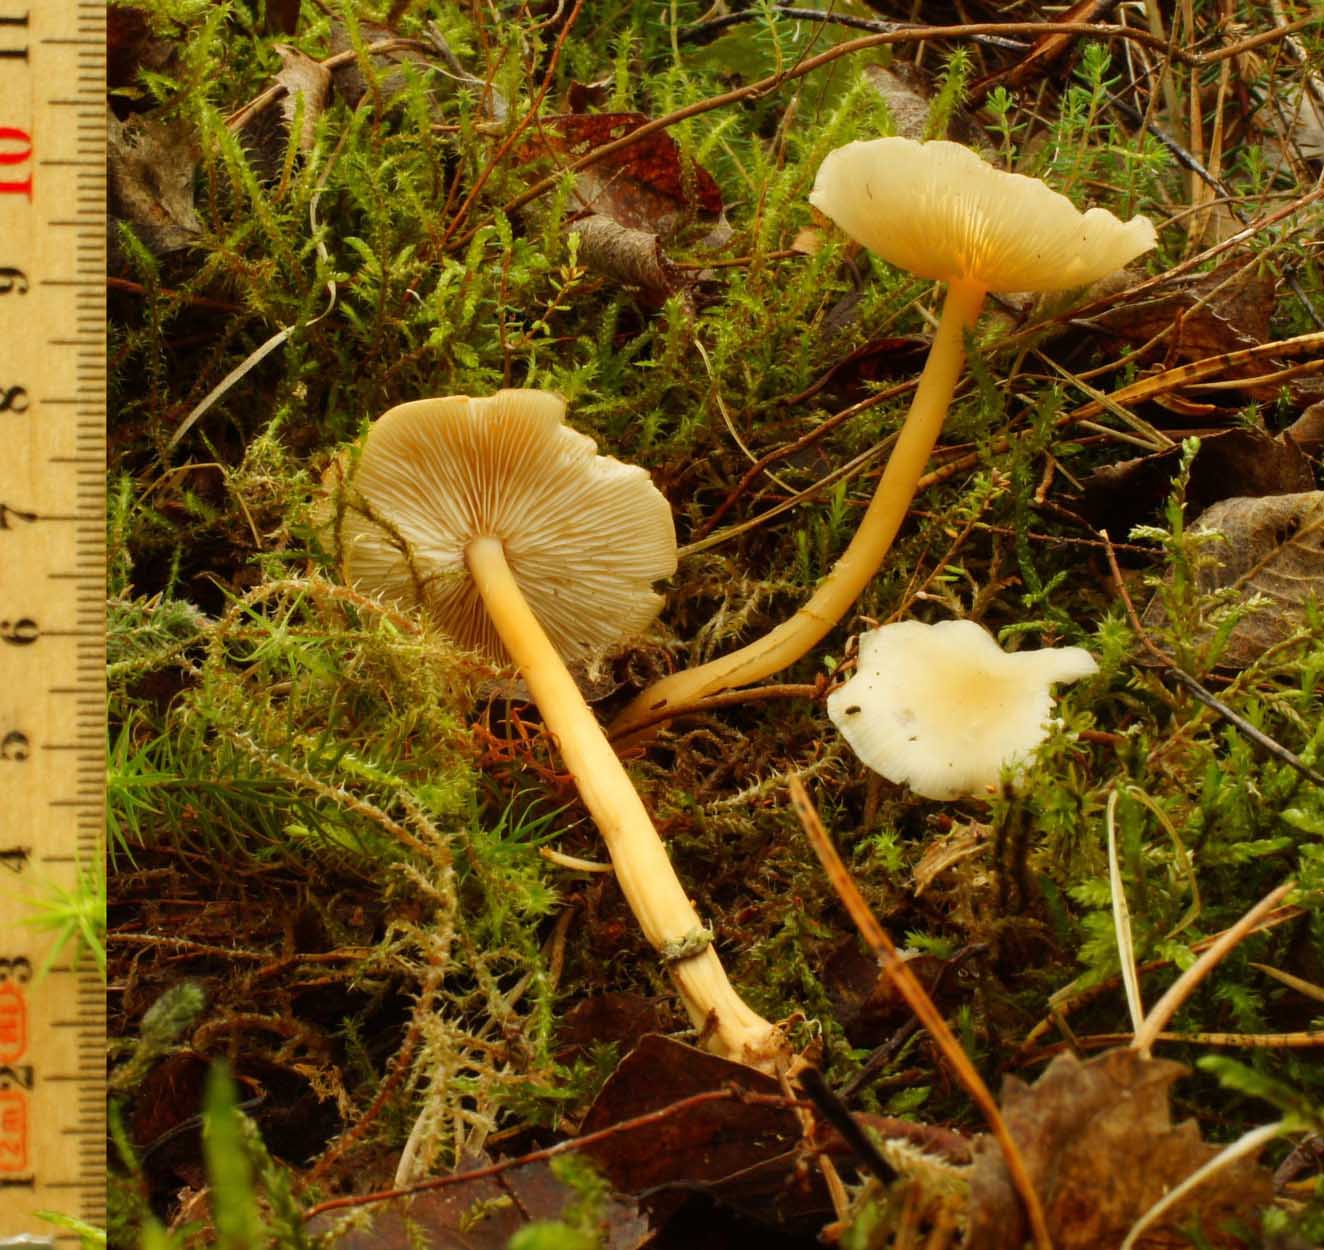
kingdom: Fungi
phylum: Basidiomycota
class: Agaricomycetes
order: Agaricales
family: Omphalotaceae
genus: Gymnopus
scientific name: Gymnopus aquosus
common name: bleg fladhat
